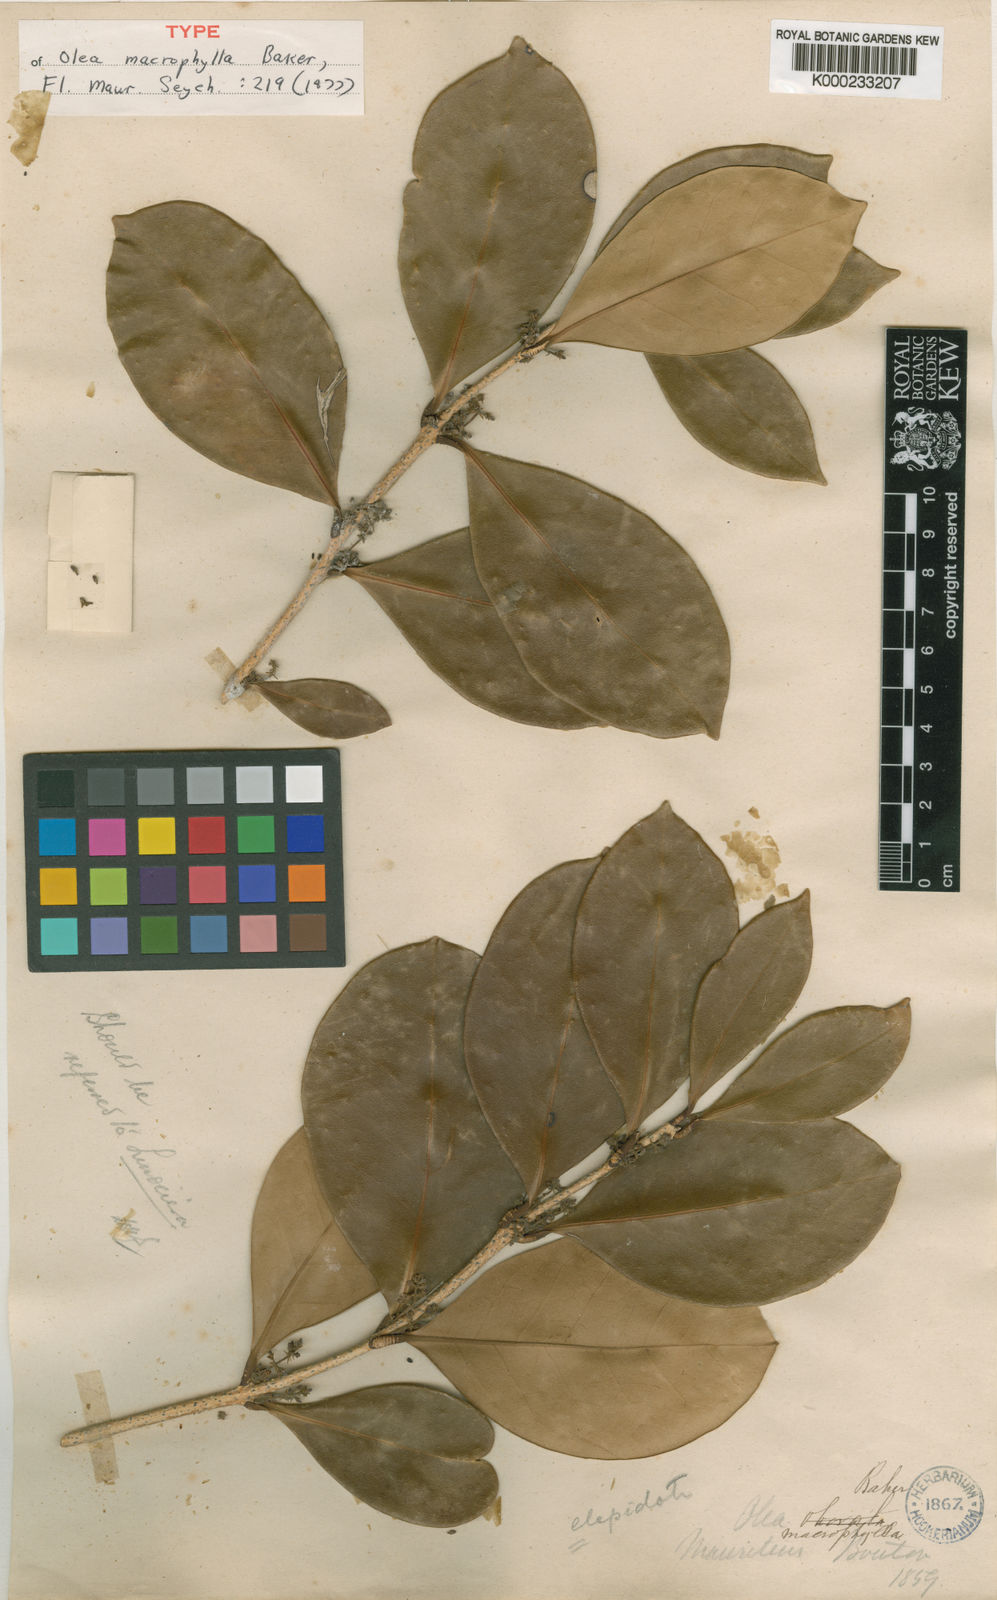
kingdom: Plantae
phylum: Tracheophyta
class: Magnoliopsida
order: Lamiales
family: Oleaceae
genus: Noronhia
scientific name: Noronhia macrophylla
